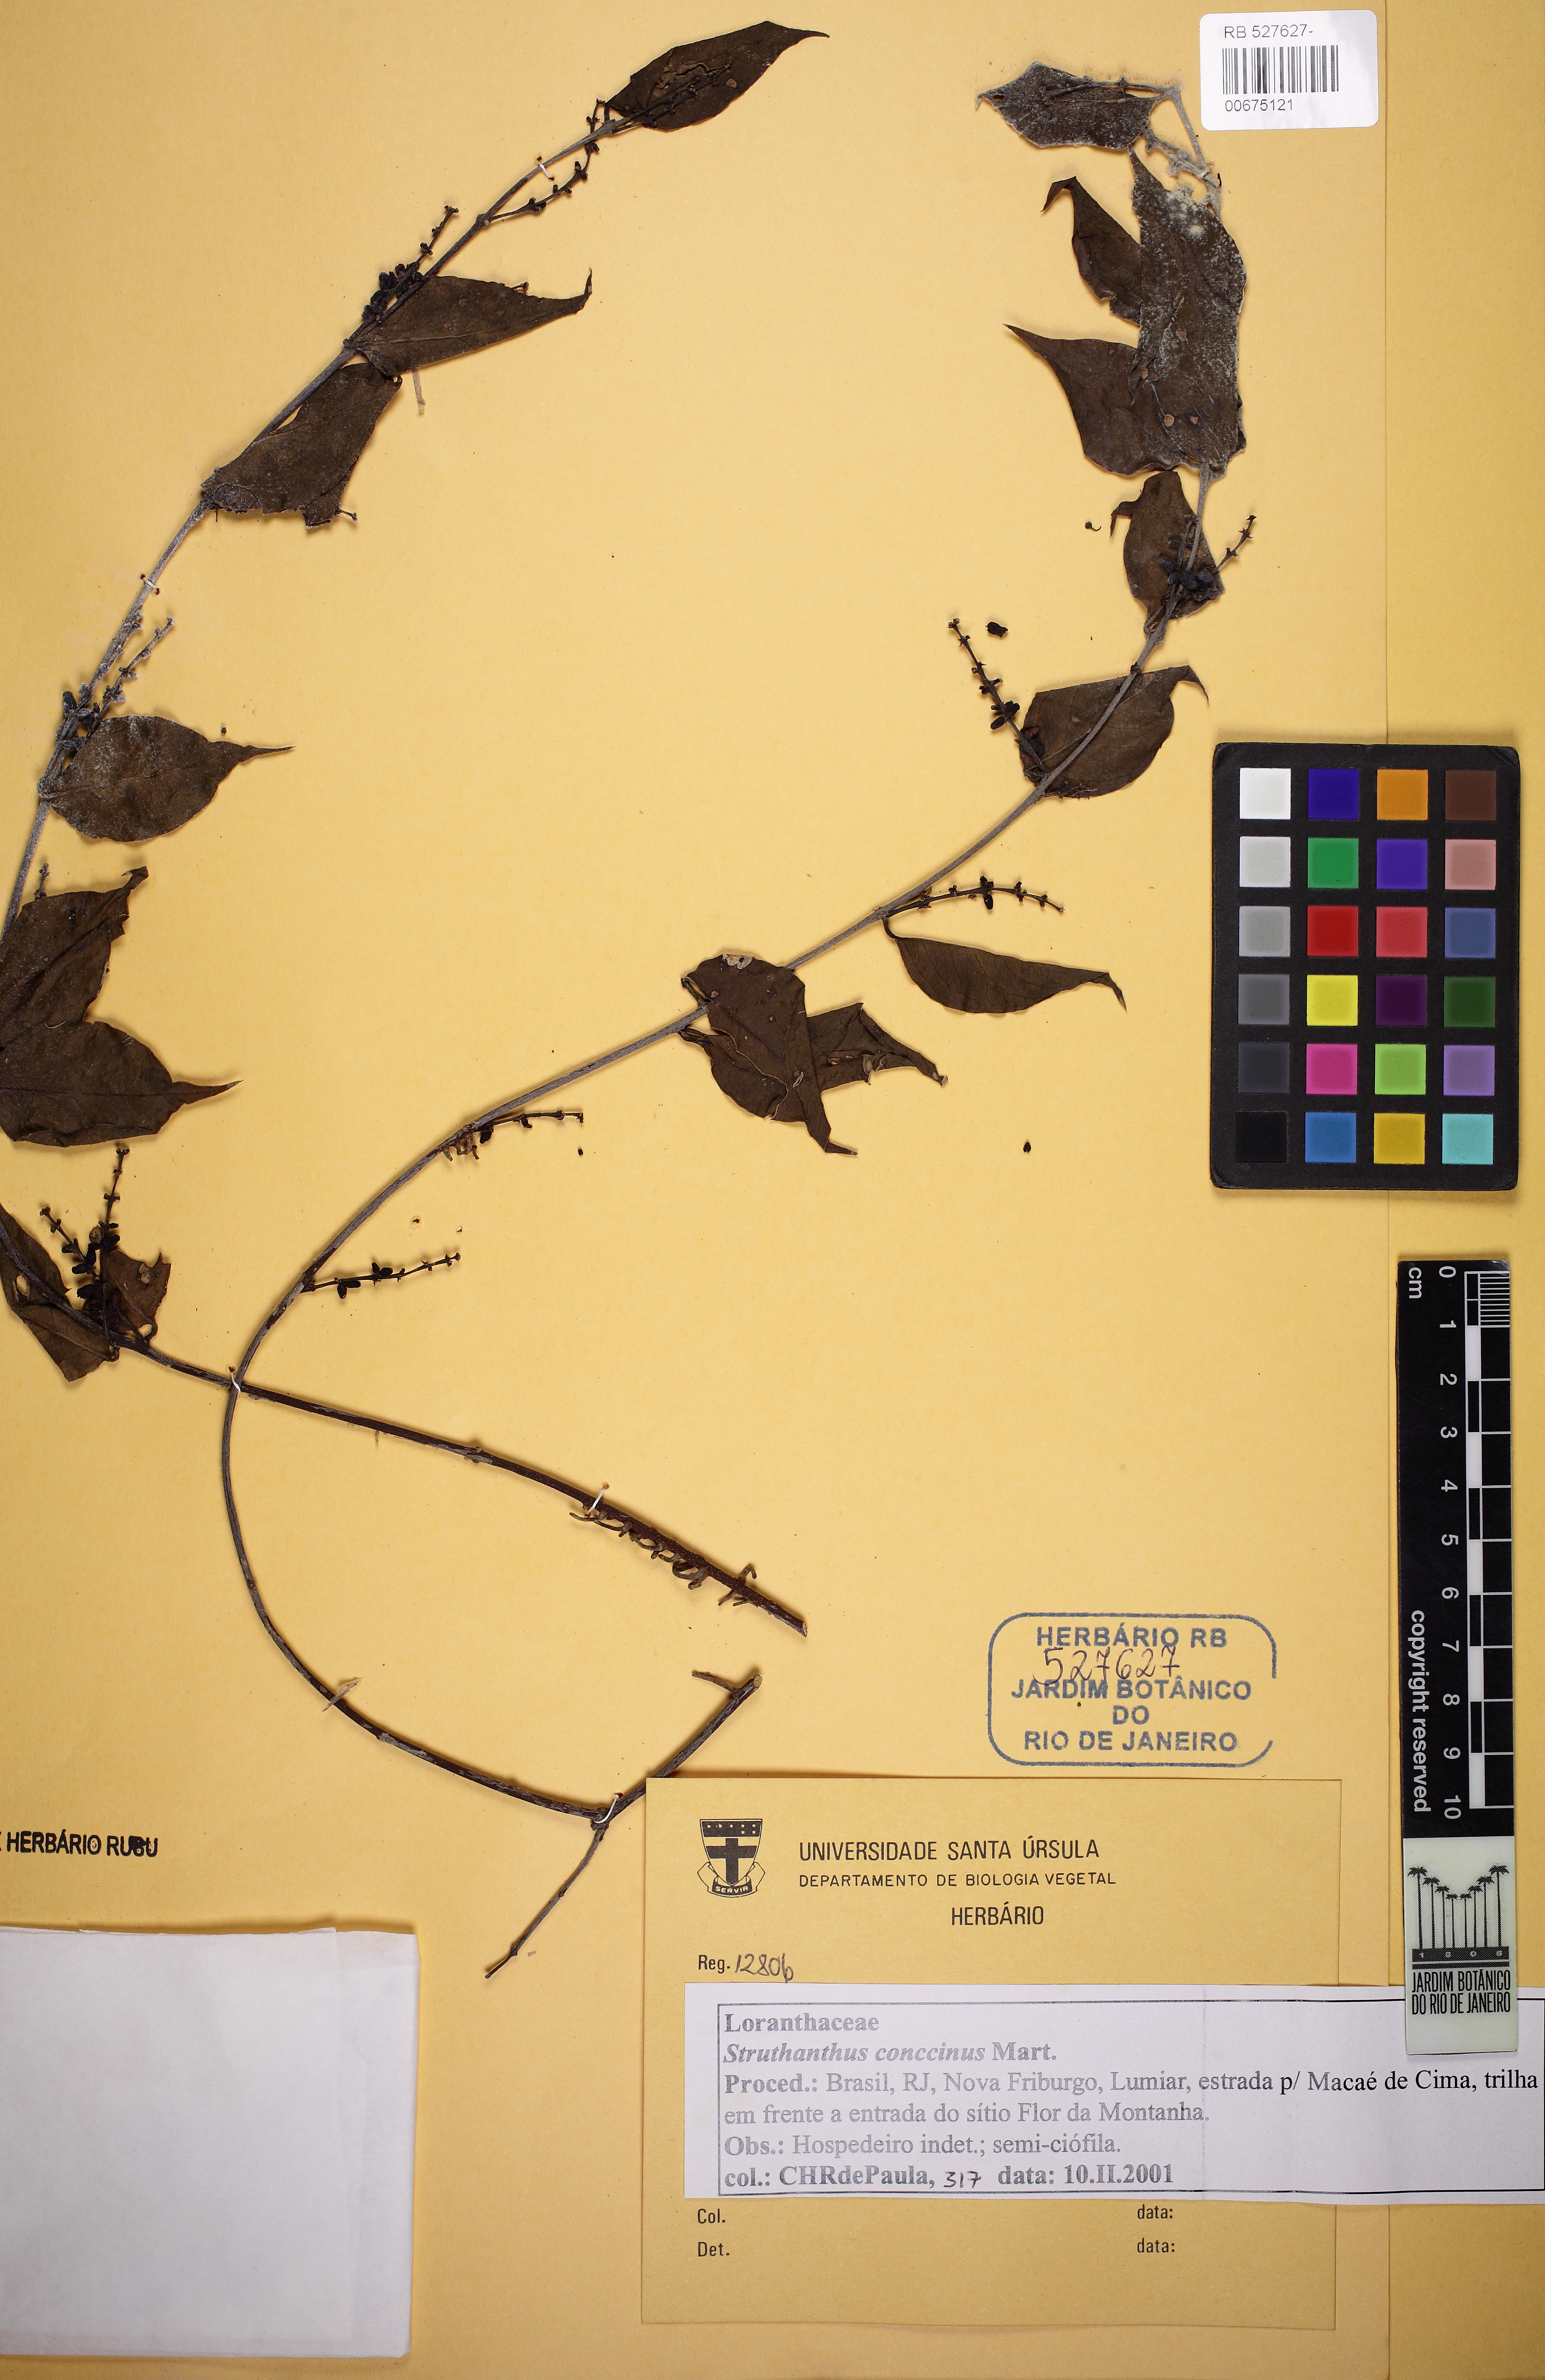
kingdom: Plantae
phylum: Tracheophyta
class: Magnoliopsida
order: Santalales
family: Loranthaceae
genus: Struthanthus
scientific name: Struthanthus concinnus
